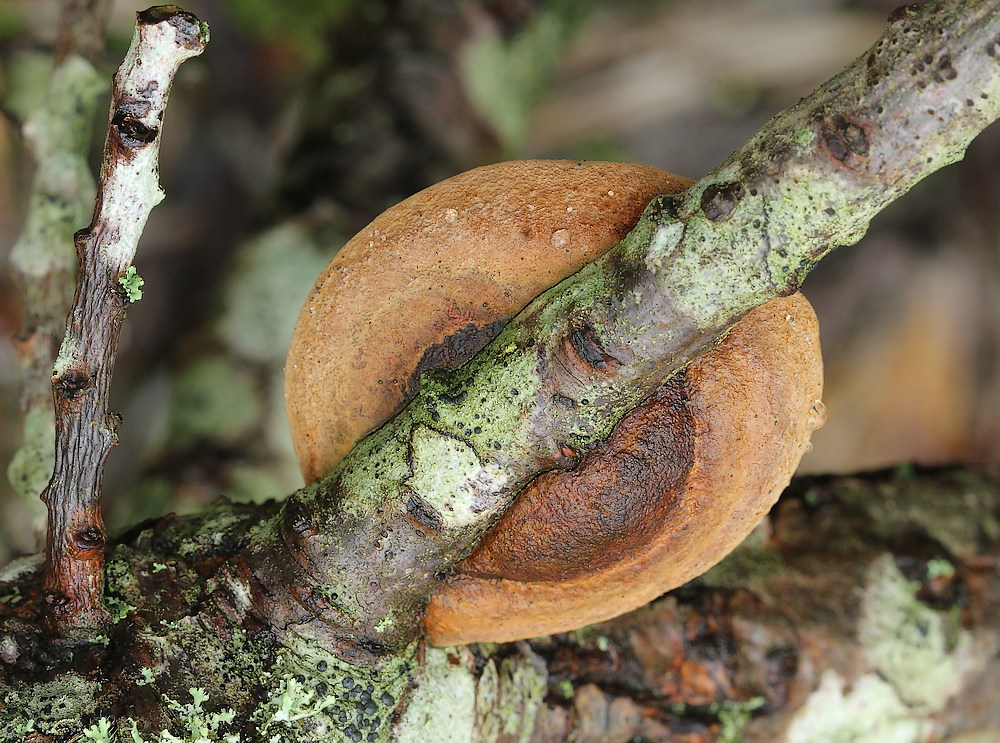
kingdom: Fungi
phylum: Basidiomycota
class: Agaricomycetes
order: Hymenochaetales
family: Hymenochaetaceae
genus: Fomitiporia
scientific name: Fomitiporia hippophaeicola
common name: havtorn-ildporesvamp
